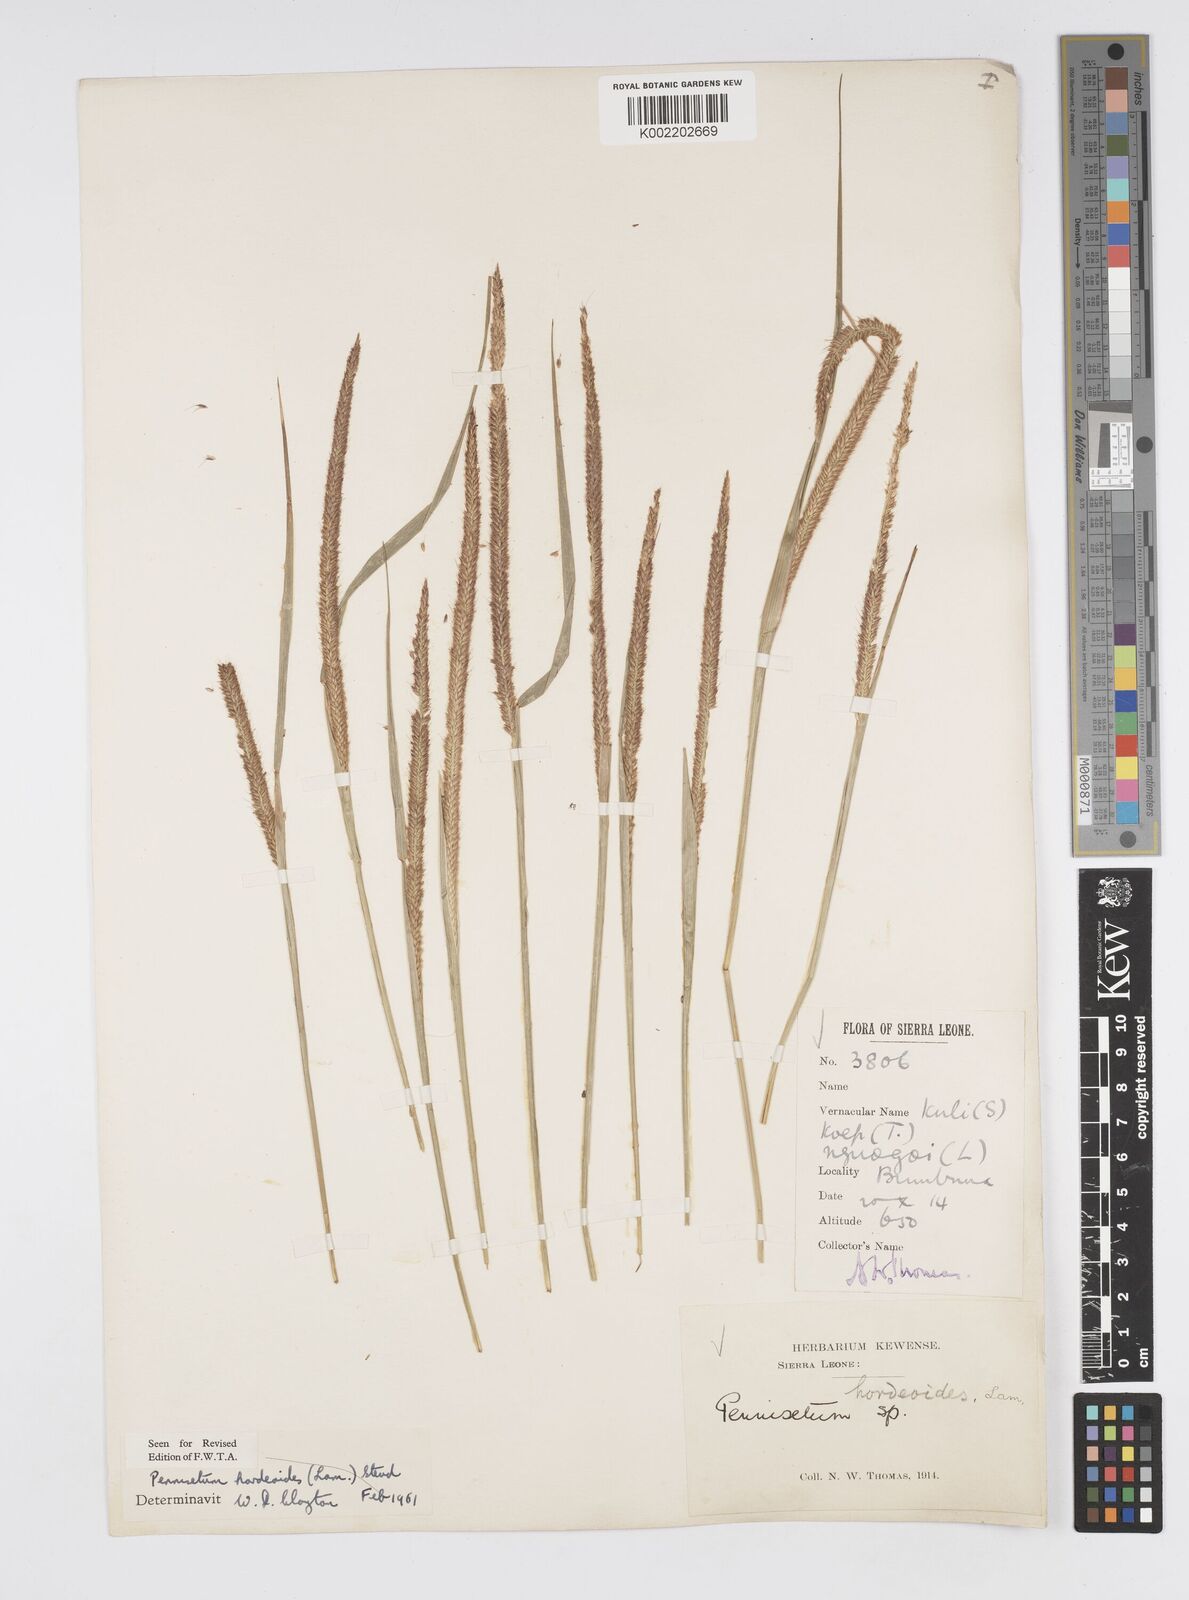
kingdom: Plantae
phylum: Tracheophyta
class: Liliopsida
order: Poales
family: Poaceae
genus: Cenchrus
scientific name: Cenchrus hordeoides
